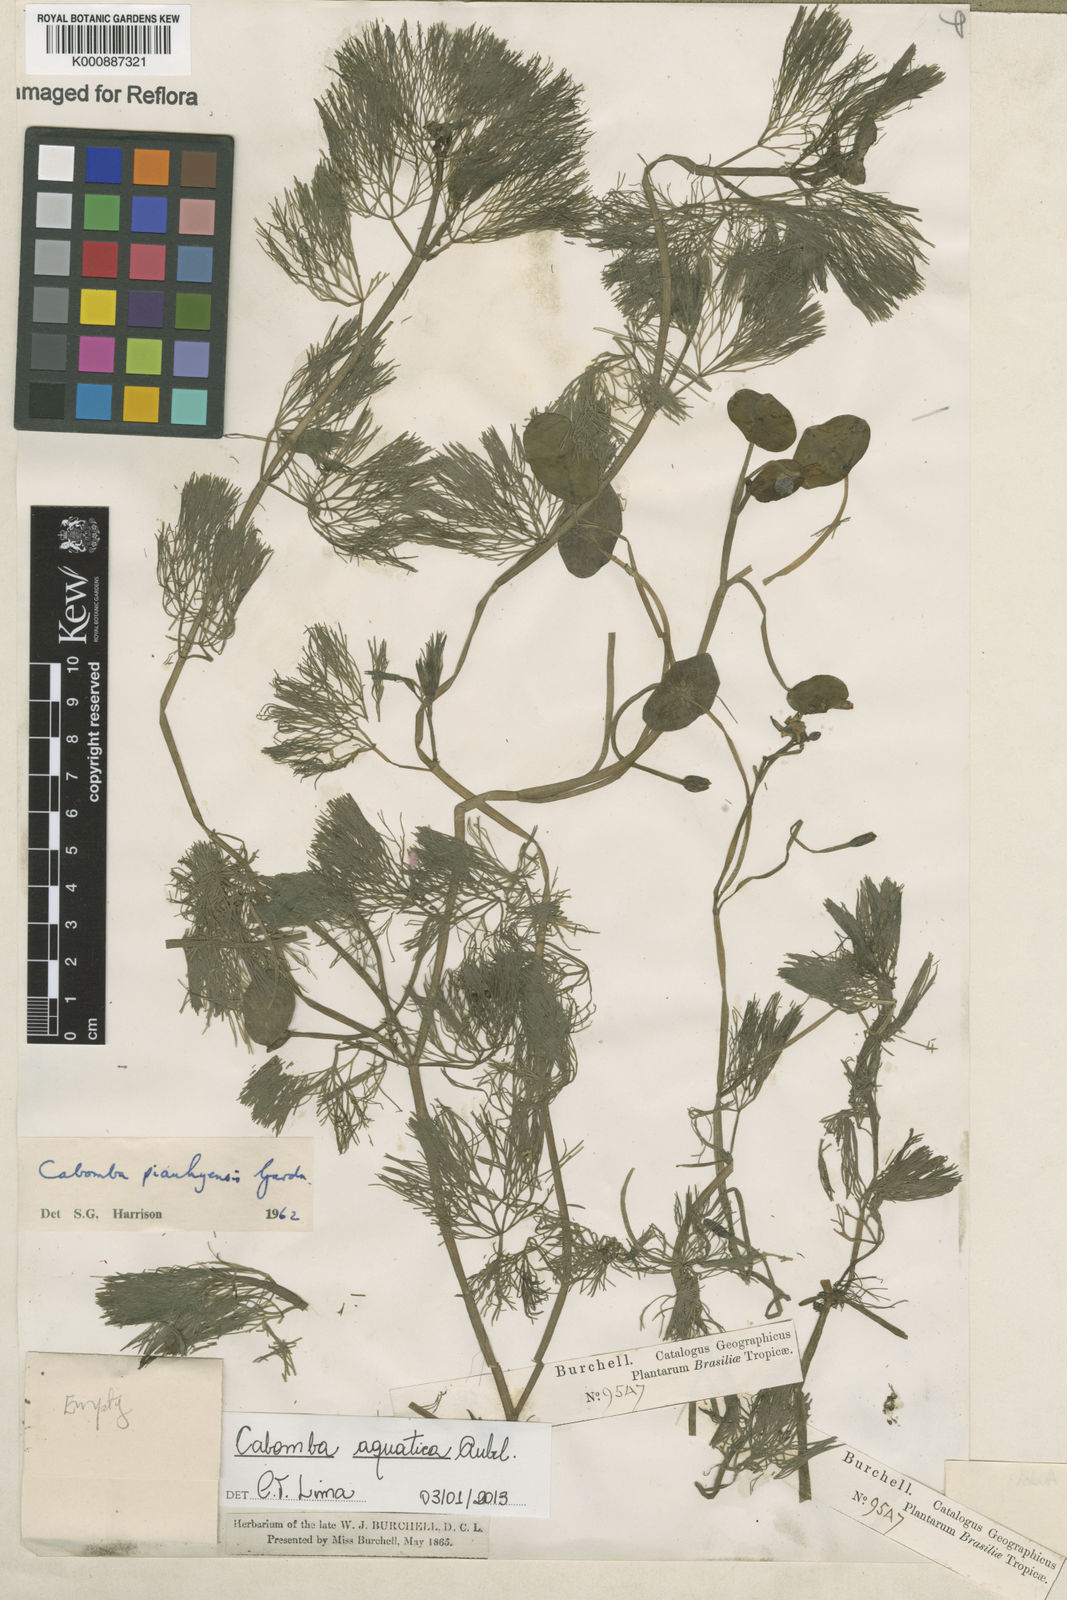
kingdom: Plantae
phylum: Tracheophyta
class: Magnoliopsida
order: Nymphaeales
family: Cabombaceae
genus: Cabomba
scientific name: Cabomba aquatica
